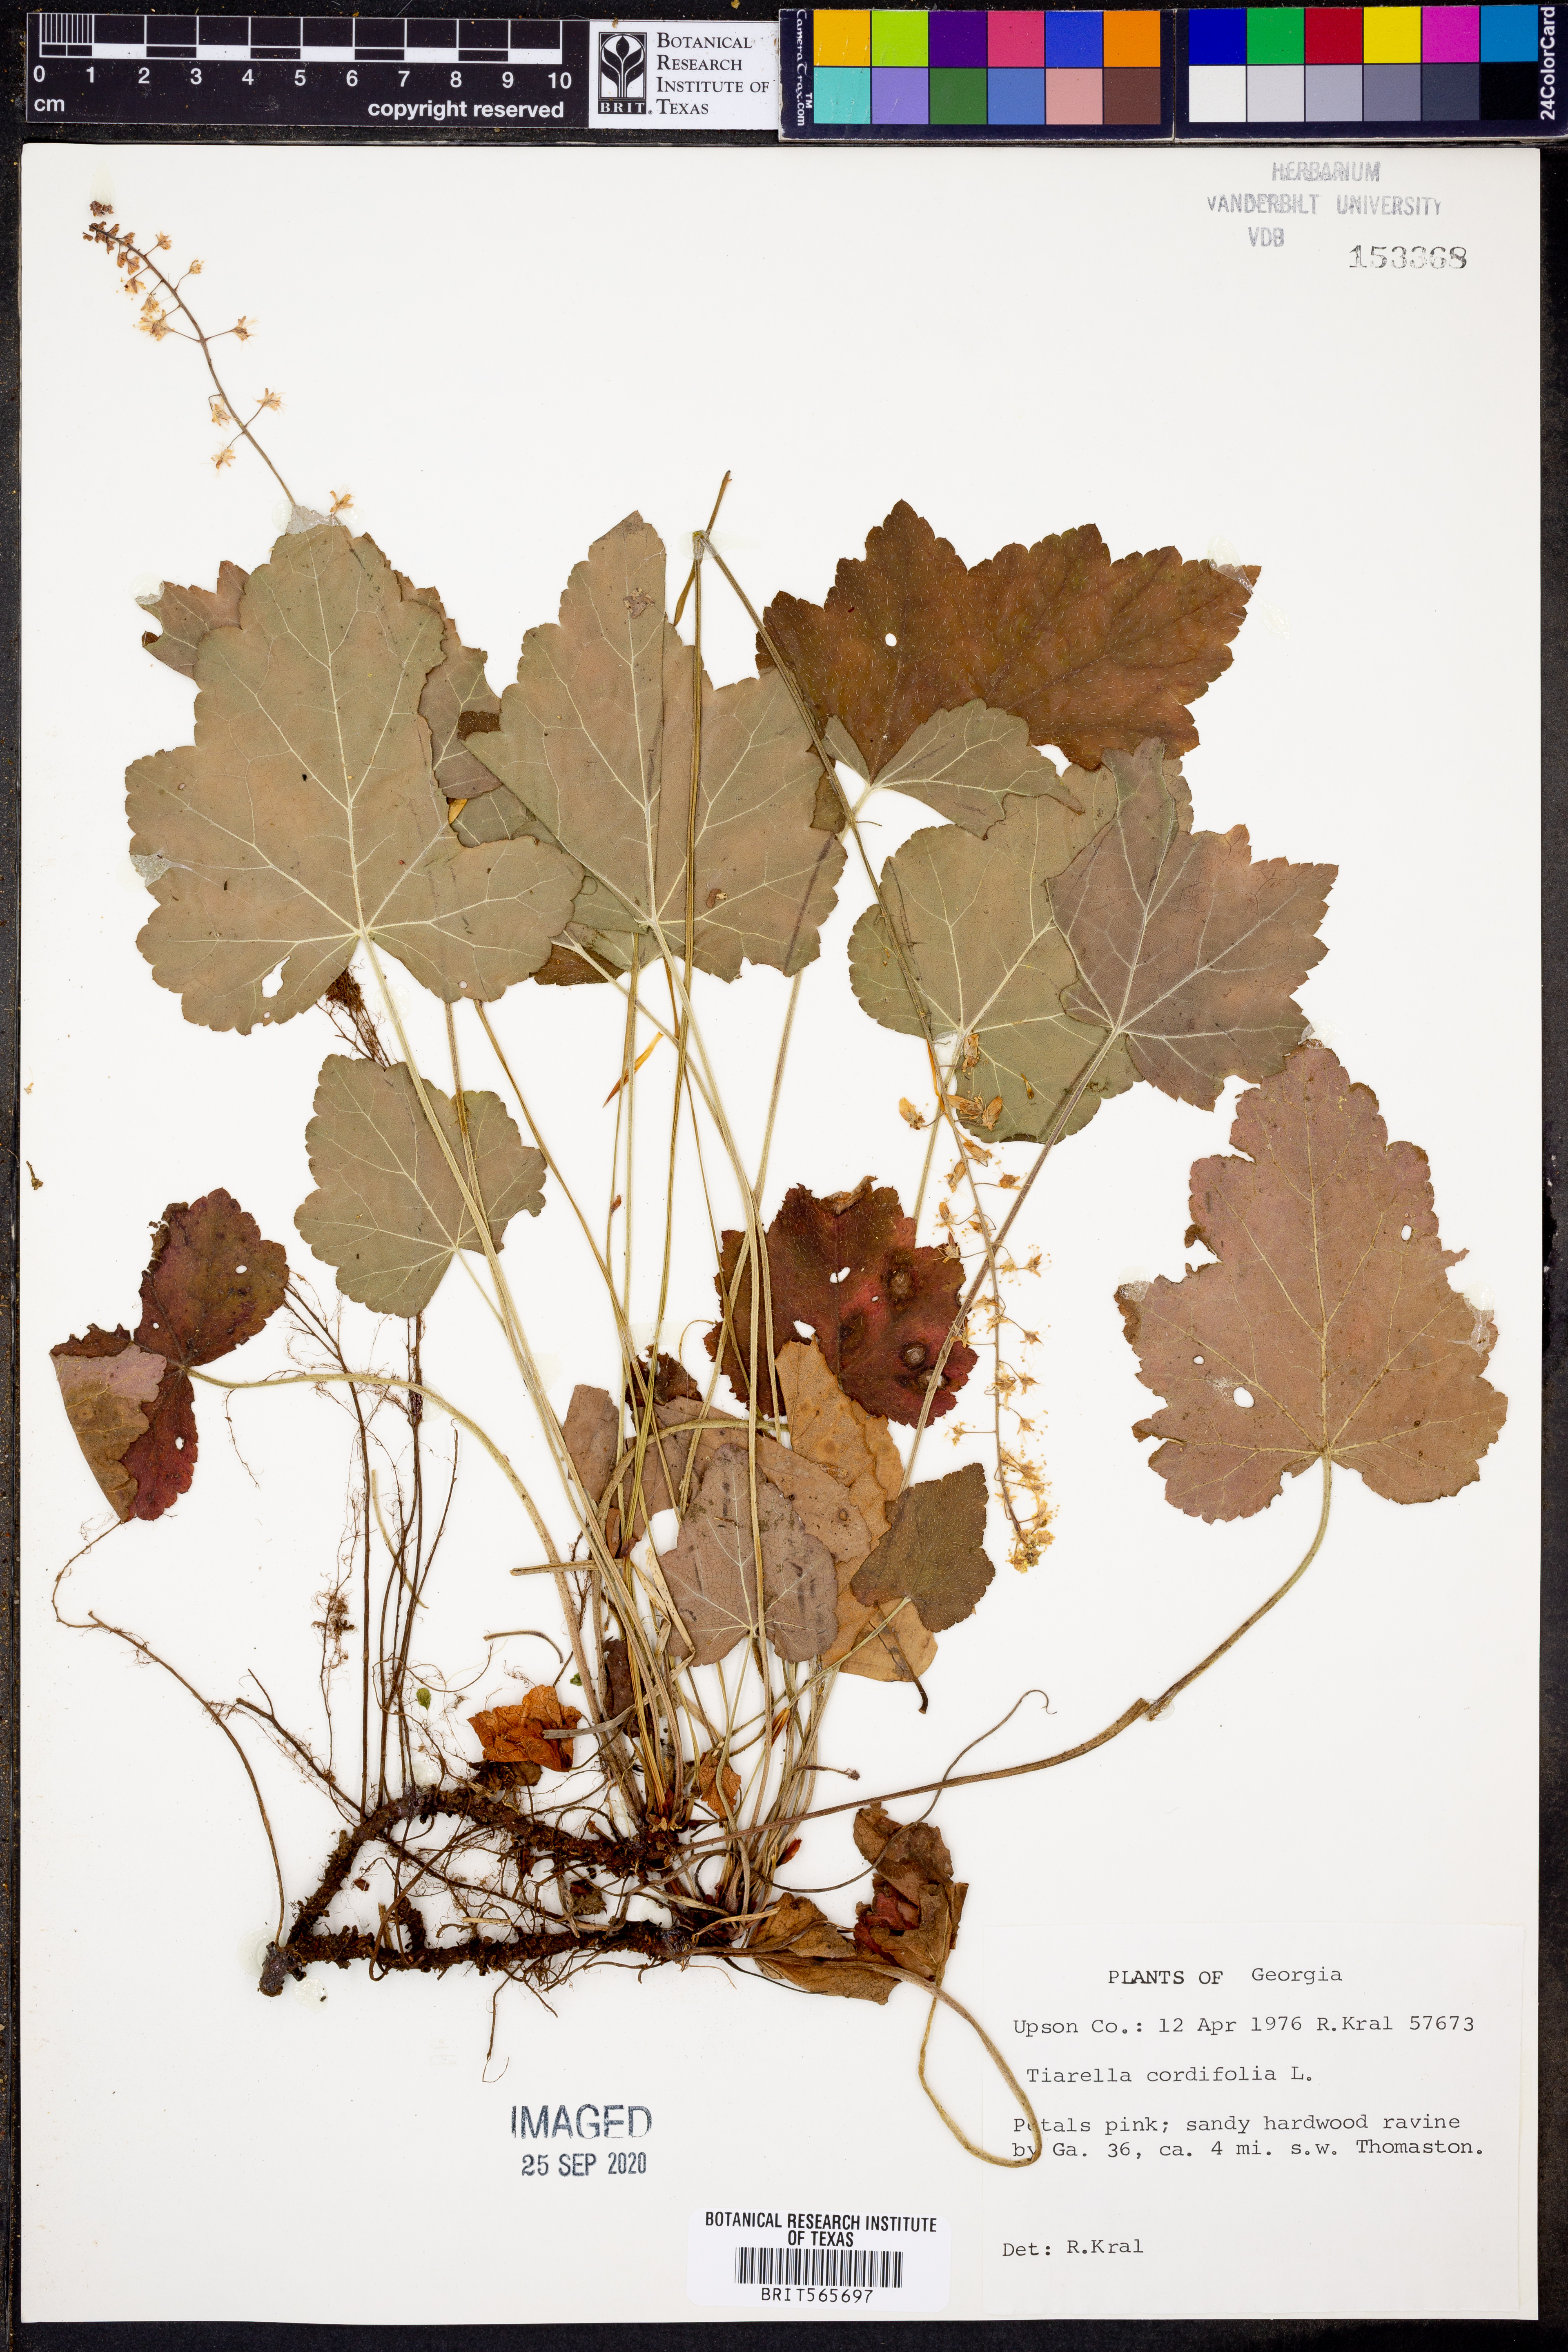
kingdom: Plantae
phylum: Tracheophyta
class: Magnoliopsida
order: Saxifragales
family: Saxifragaceae
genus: Tiarella
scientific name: Tiarella cordifolia
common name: Foamflower
